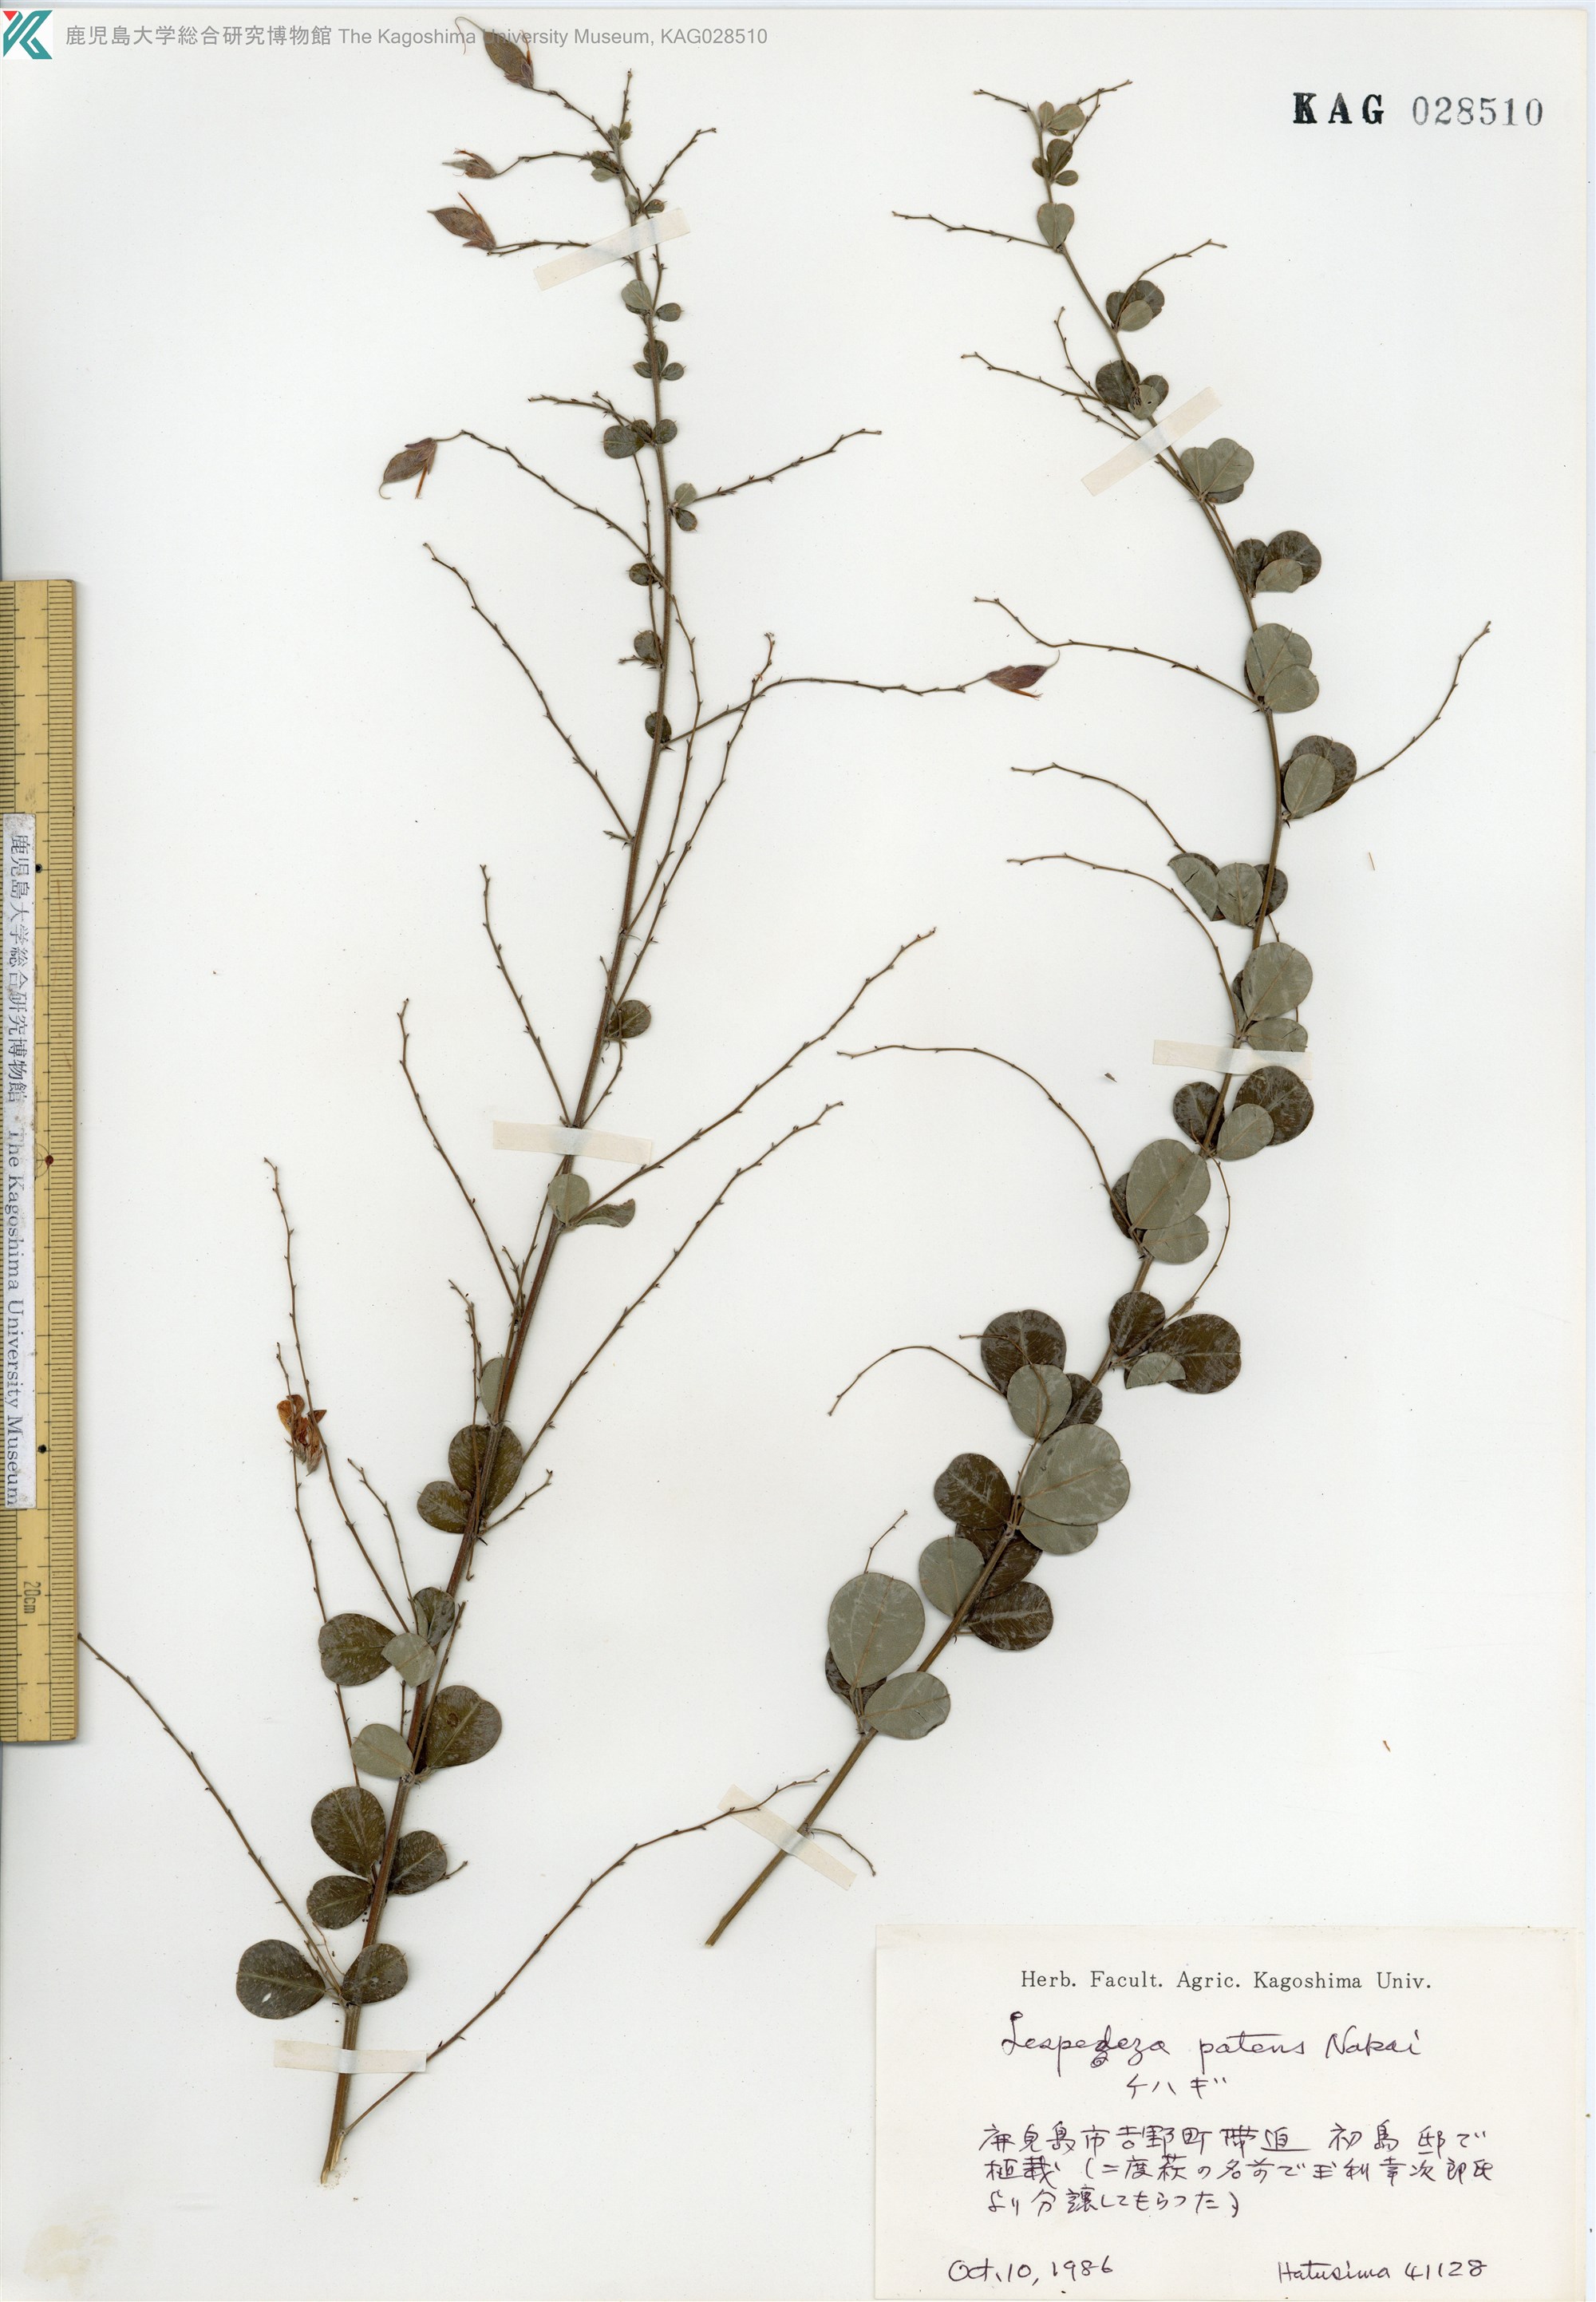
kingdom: Plantae
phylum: Tracheophyta
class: Magnoliopsida
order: Fabales
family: Fabaceae
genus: Lespedeza
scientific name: Lespedeza thunbergii
